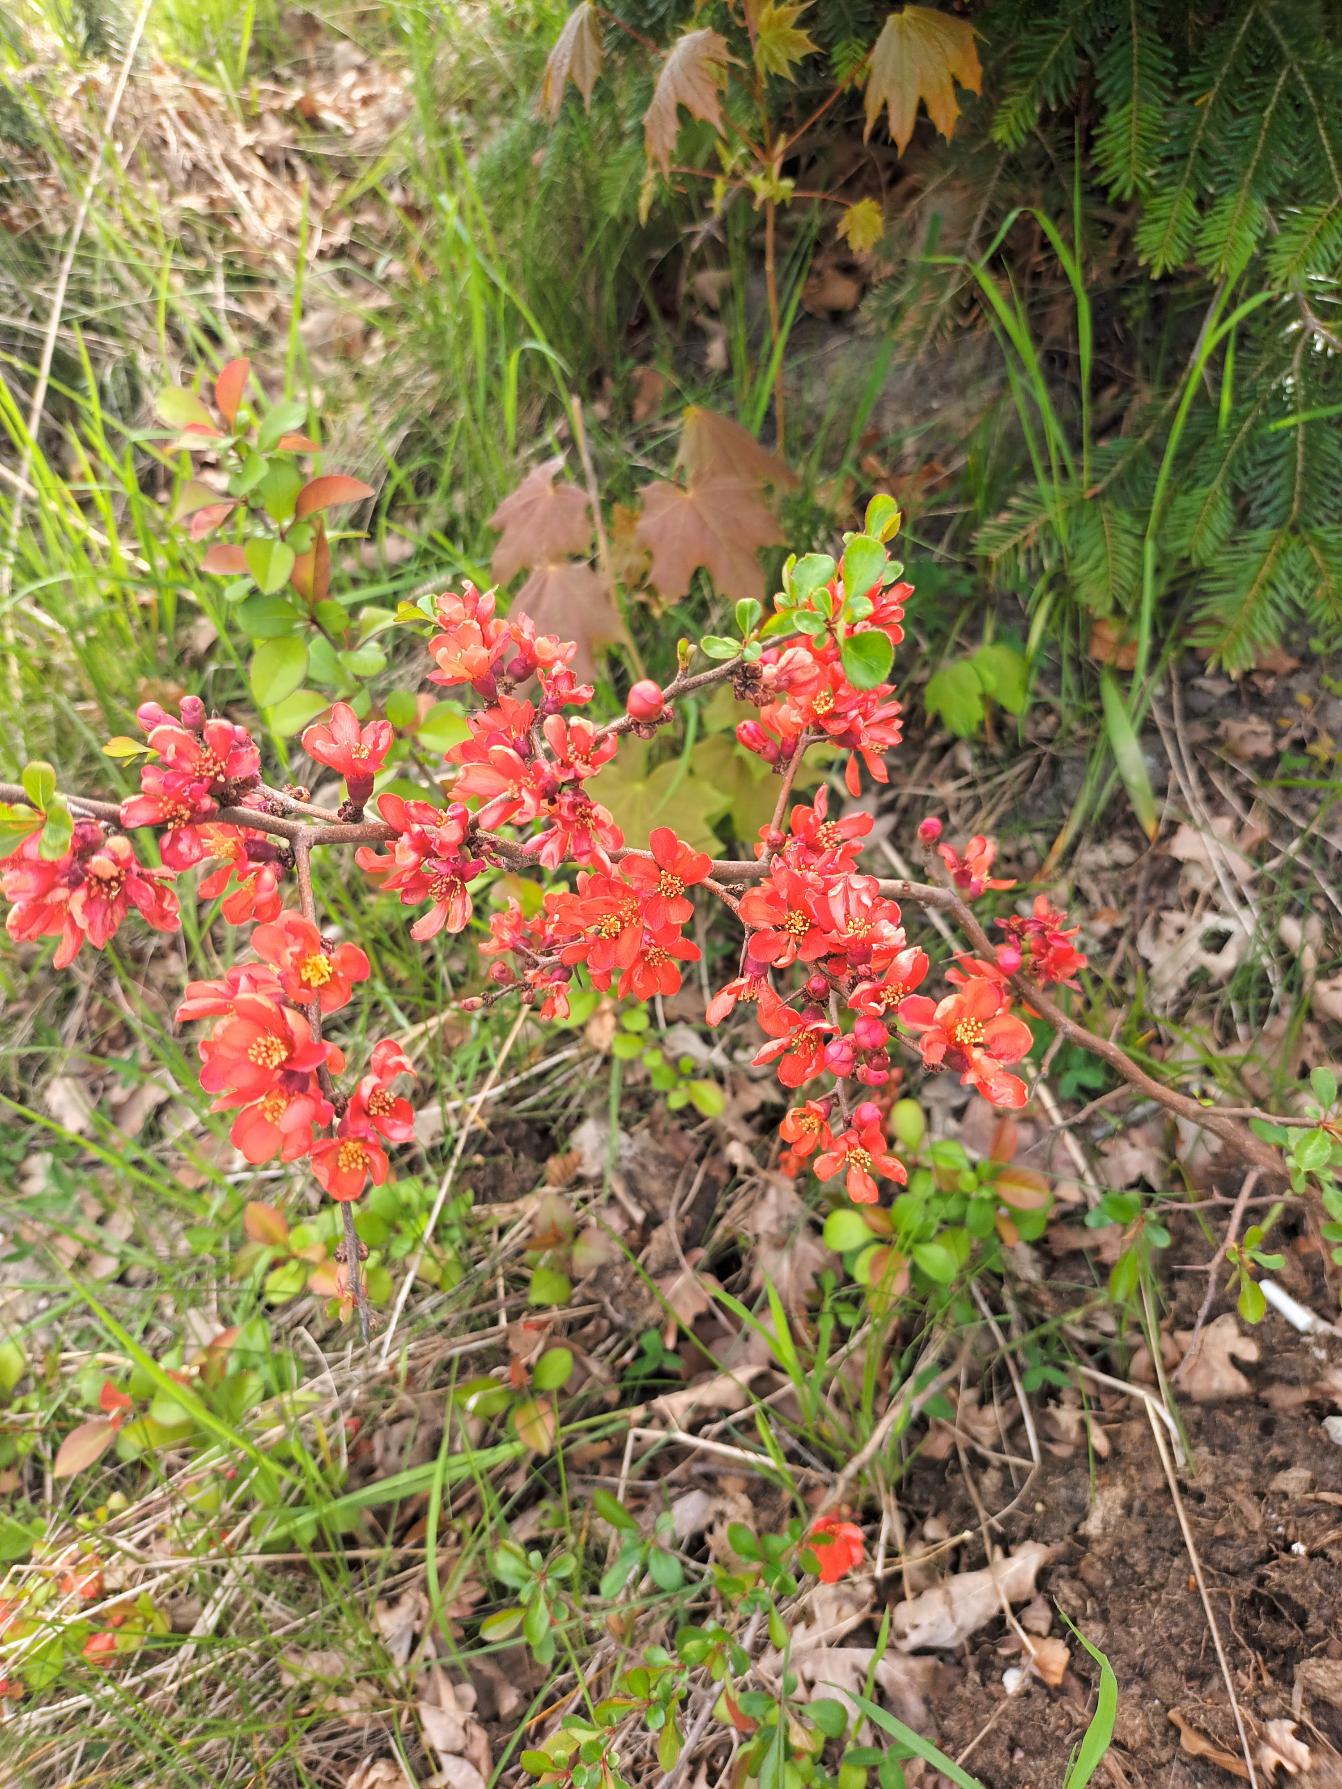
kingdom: Plantae
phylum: Tracheophyta
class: Magnoliopsida
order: Rosales
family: Rosaceae
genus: Chaenomeles
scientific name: Chaenomeles japonica
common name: Lille japankvæde
